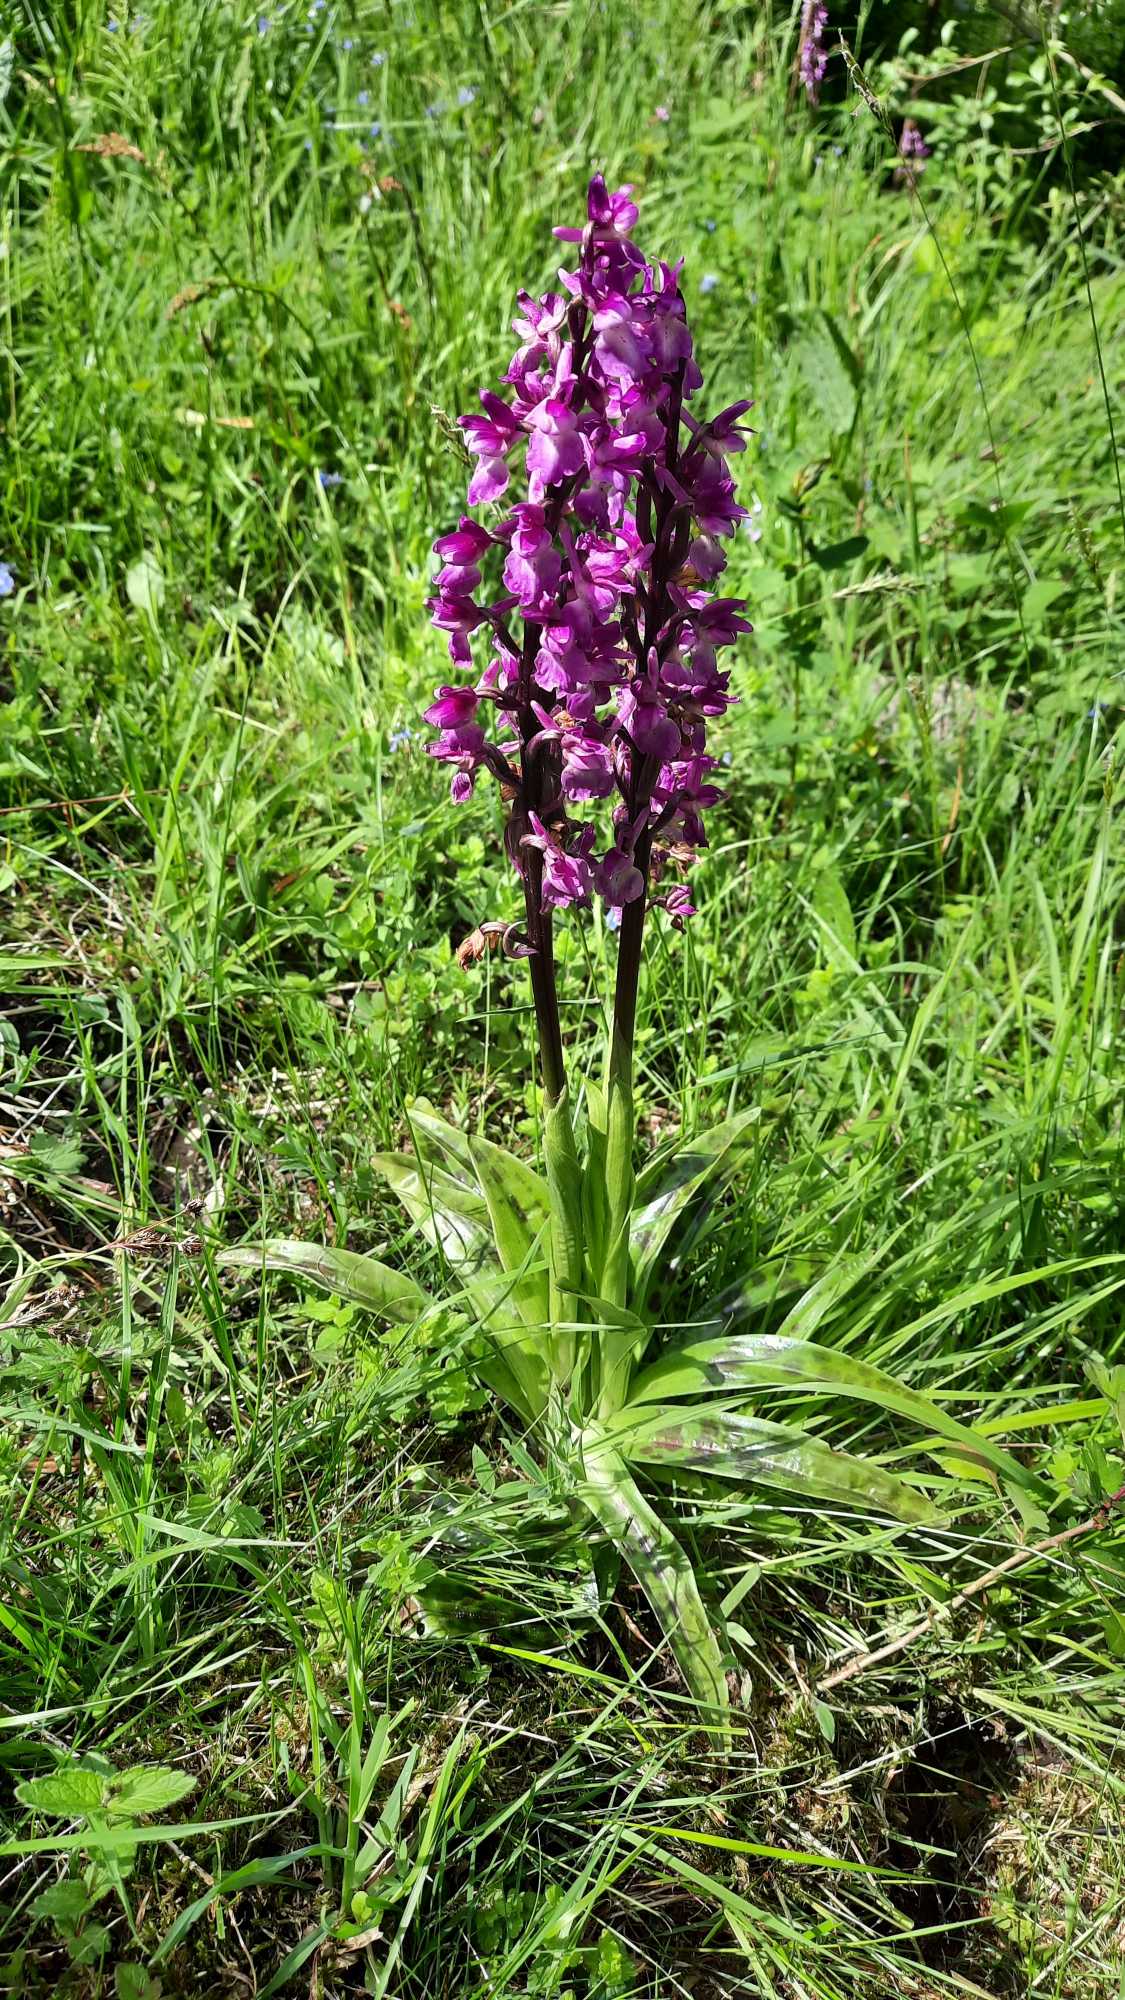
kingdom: Plantae
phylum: Tracheophyta
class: Liliopsida
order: Asparagales
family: Orchidaceae
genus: Orchis
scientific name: Orchis mascula
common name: Tyndakset gøgeurt
